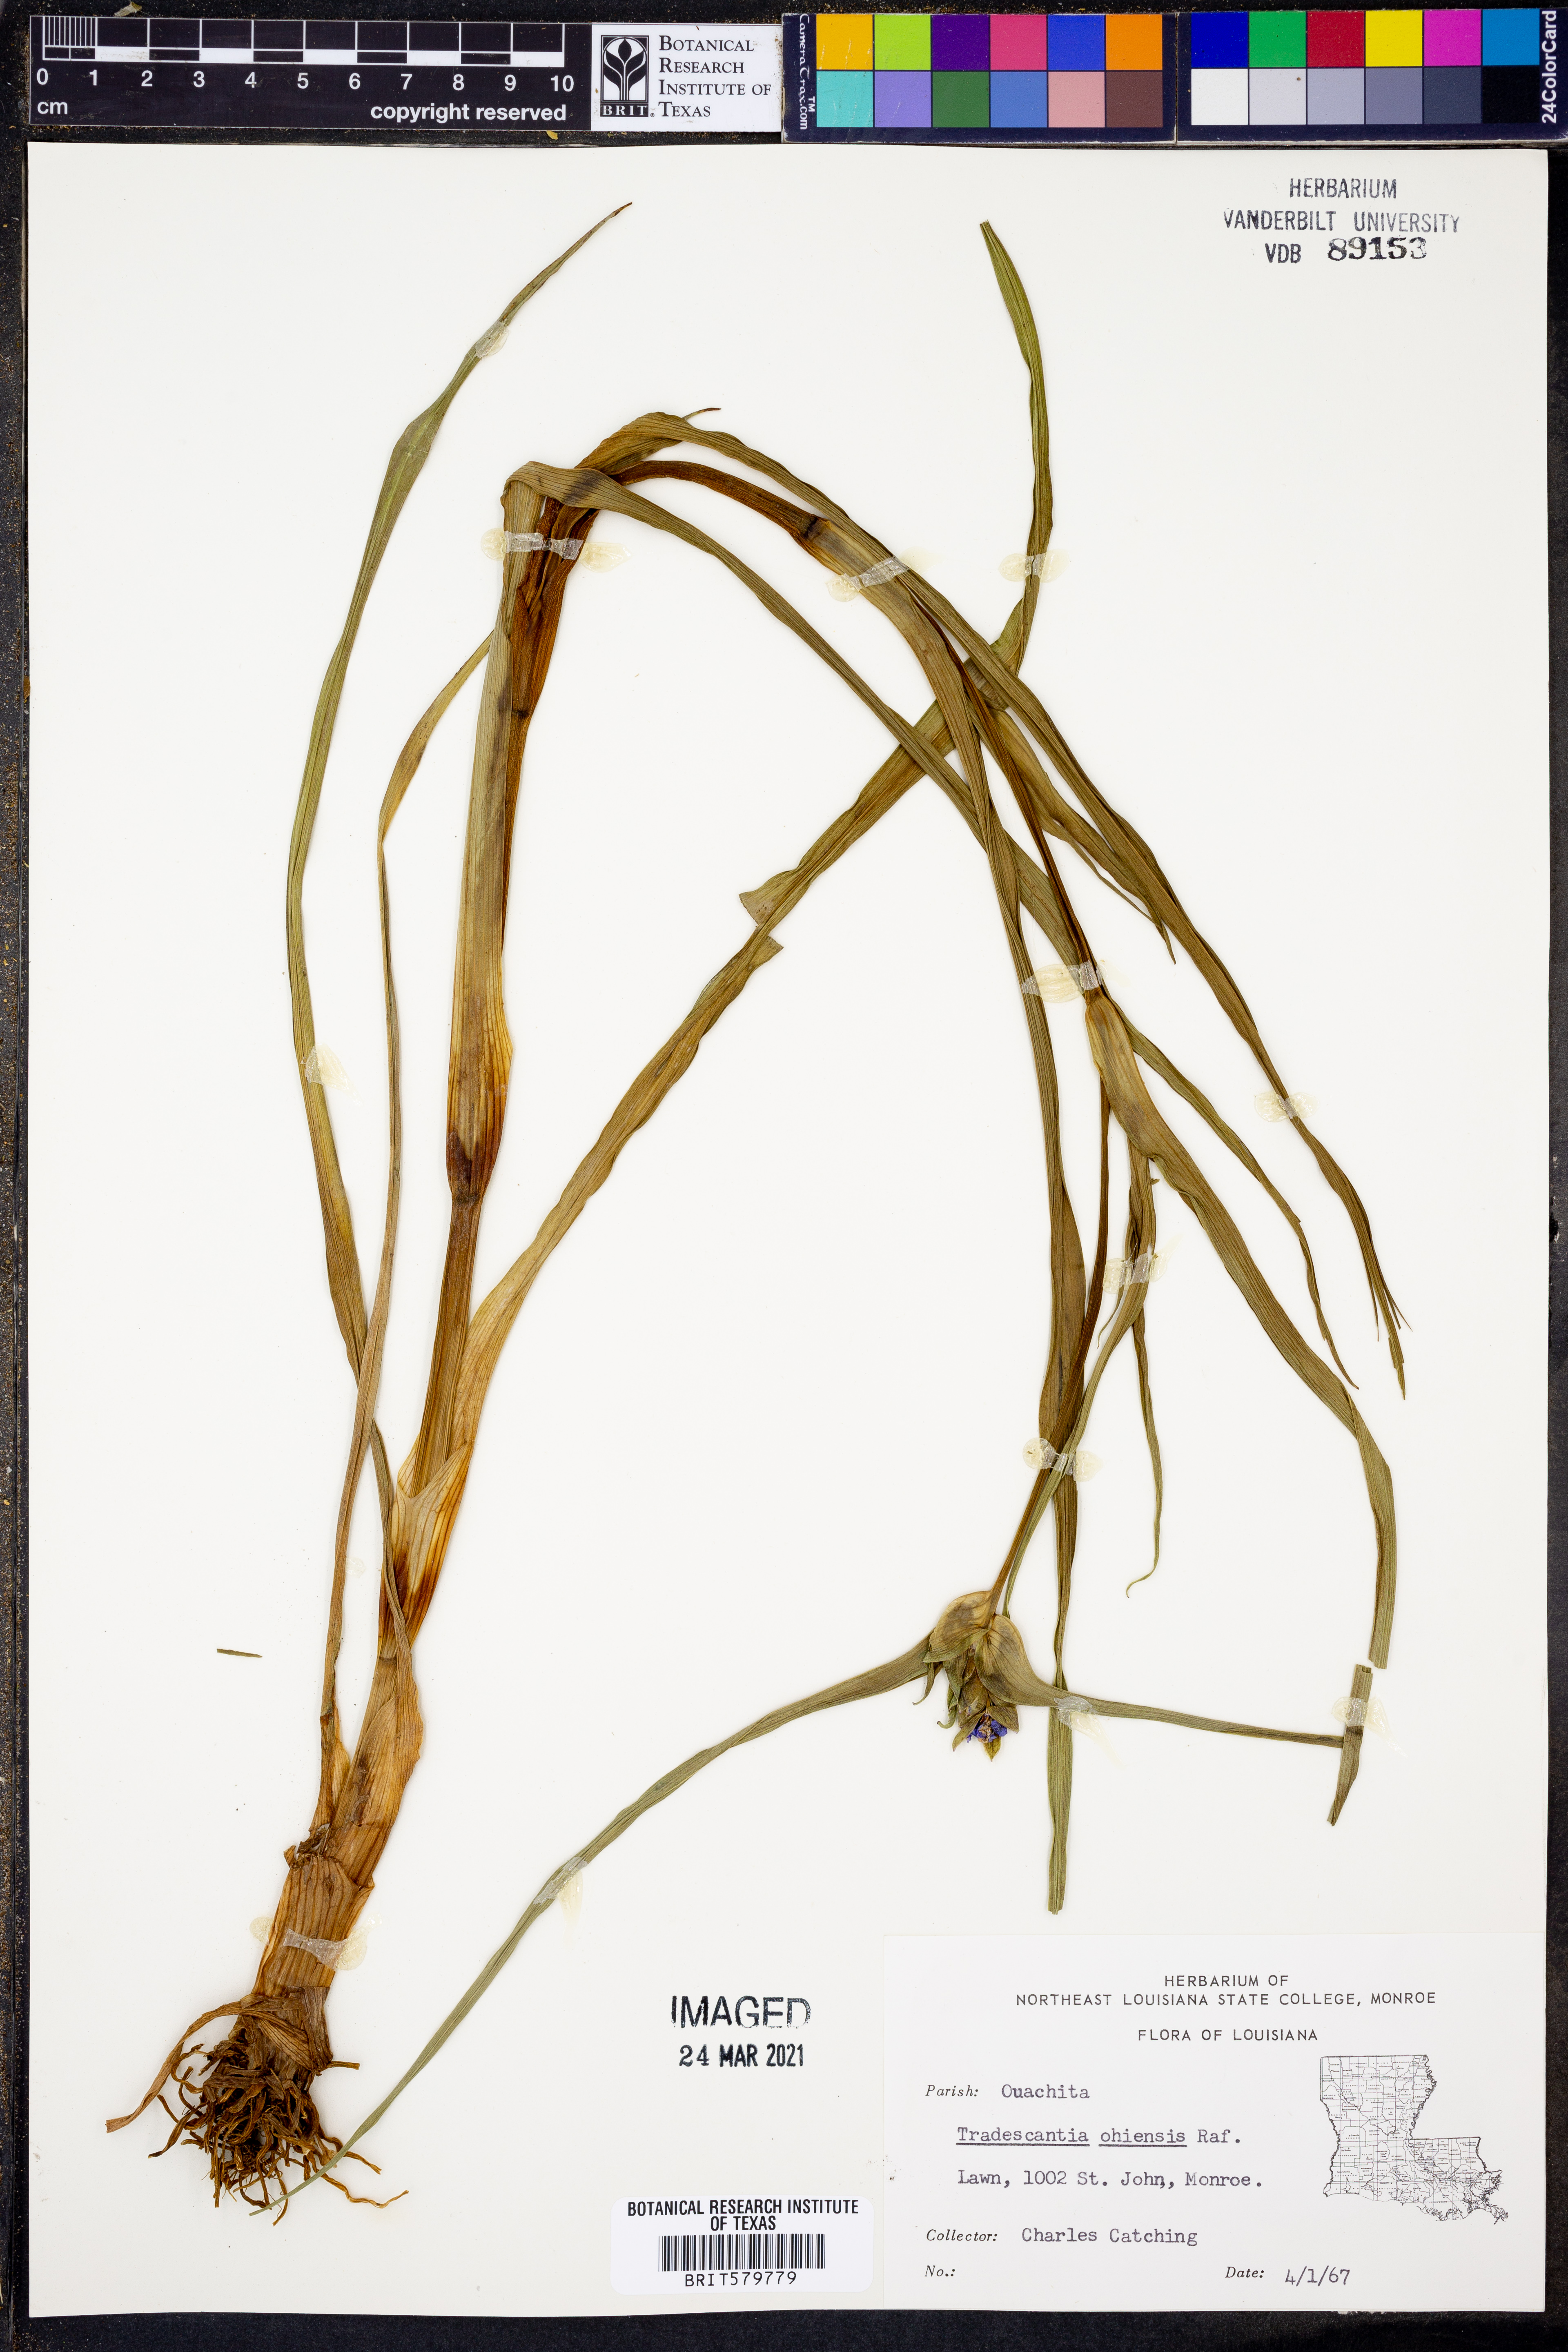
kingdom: Plantae
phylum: Tracheophyta
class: Liliopsida
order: Commelinales
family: Commelinaceae
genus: Tradescantia
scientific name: Tradescantia ohiensis
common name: Ohio spiderwort
